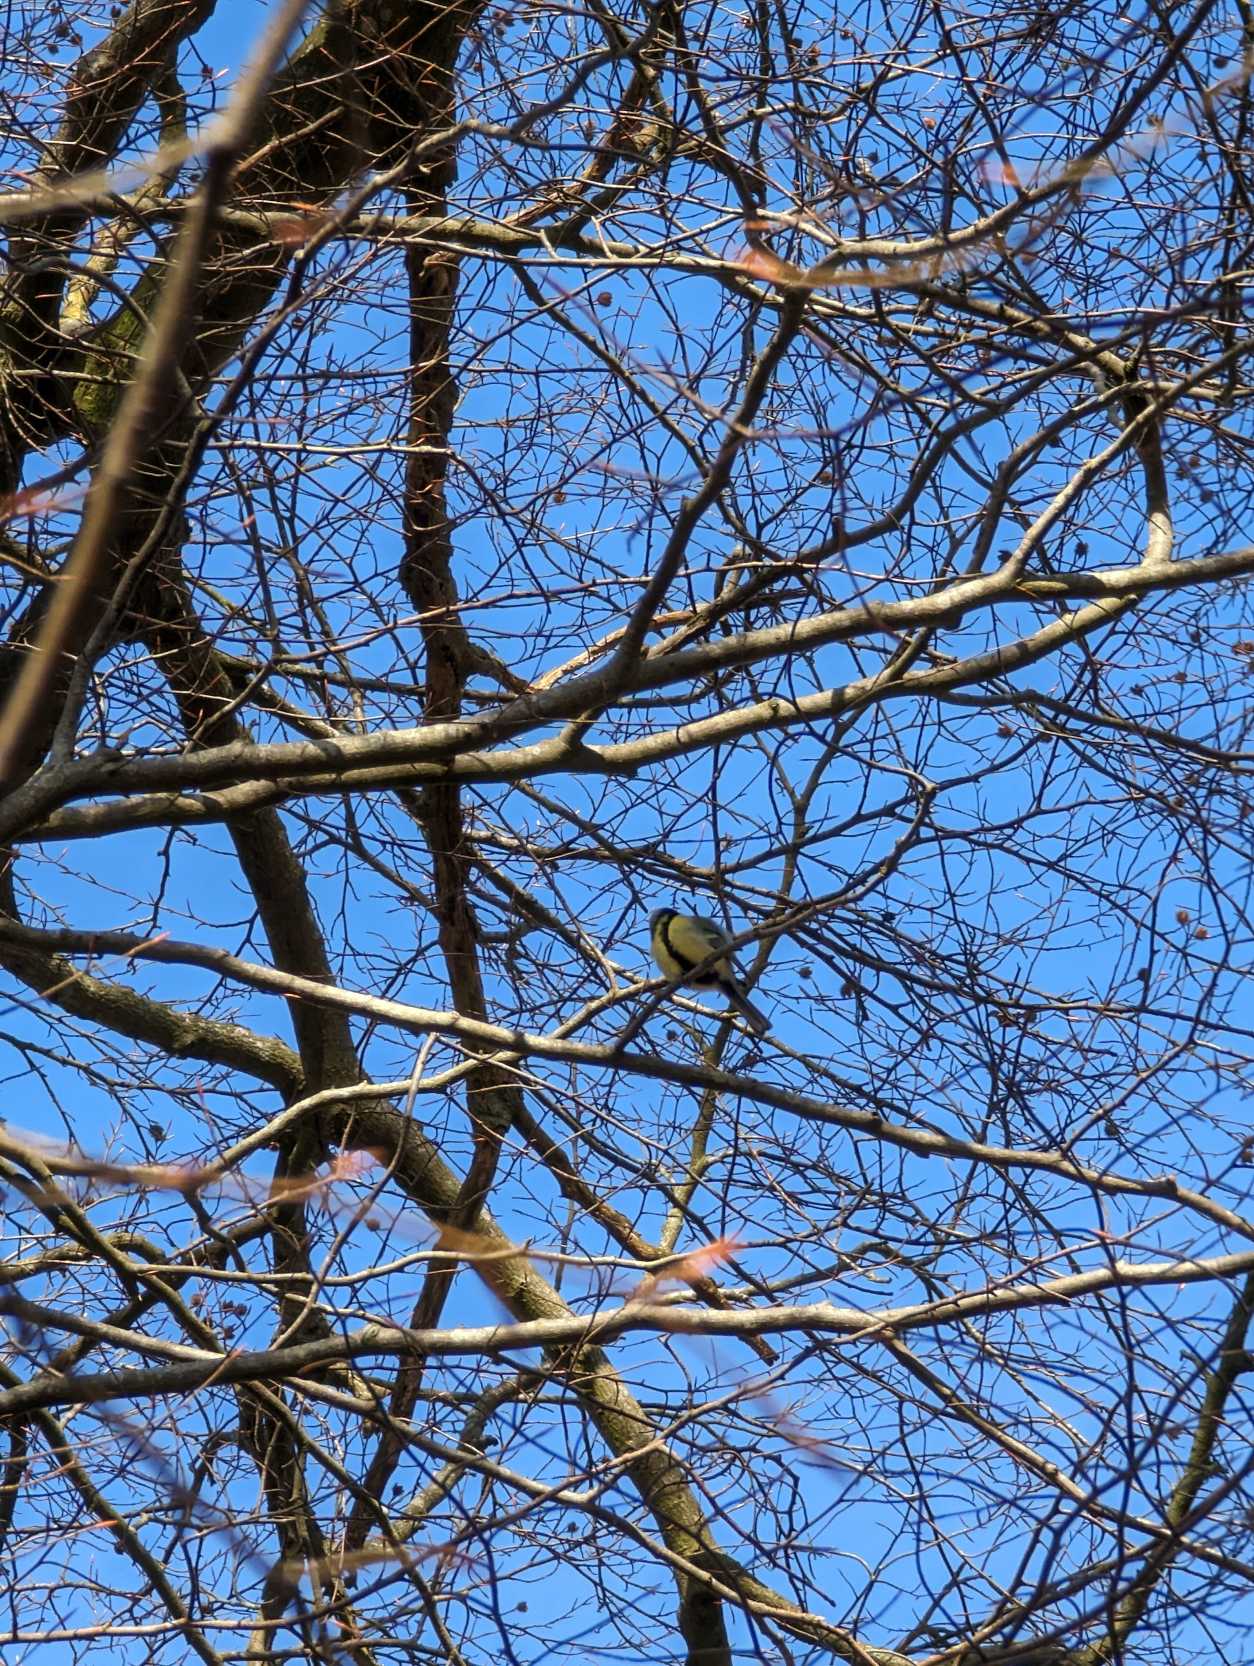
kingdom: Animalia
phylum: Chordata
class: Aves
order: Passeriformes
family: Paridae
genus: Parus
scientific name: Parus major
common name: Musvit
